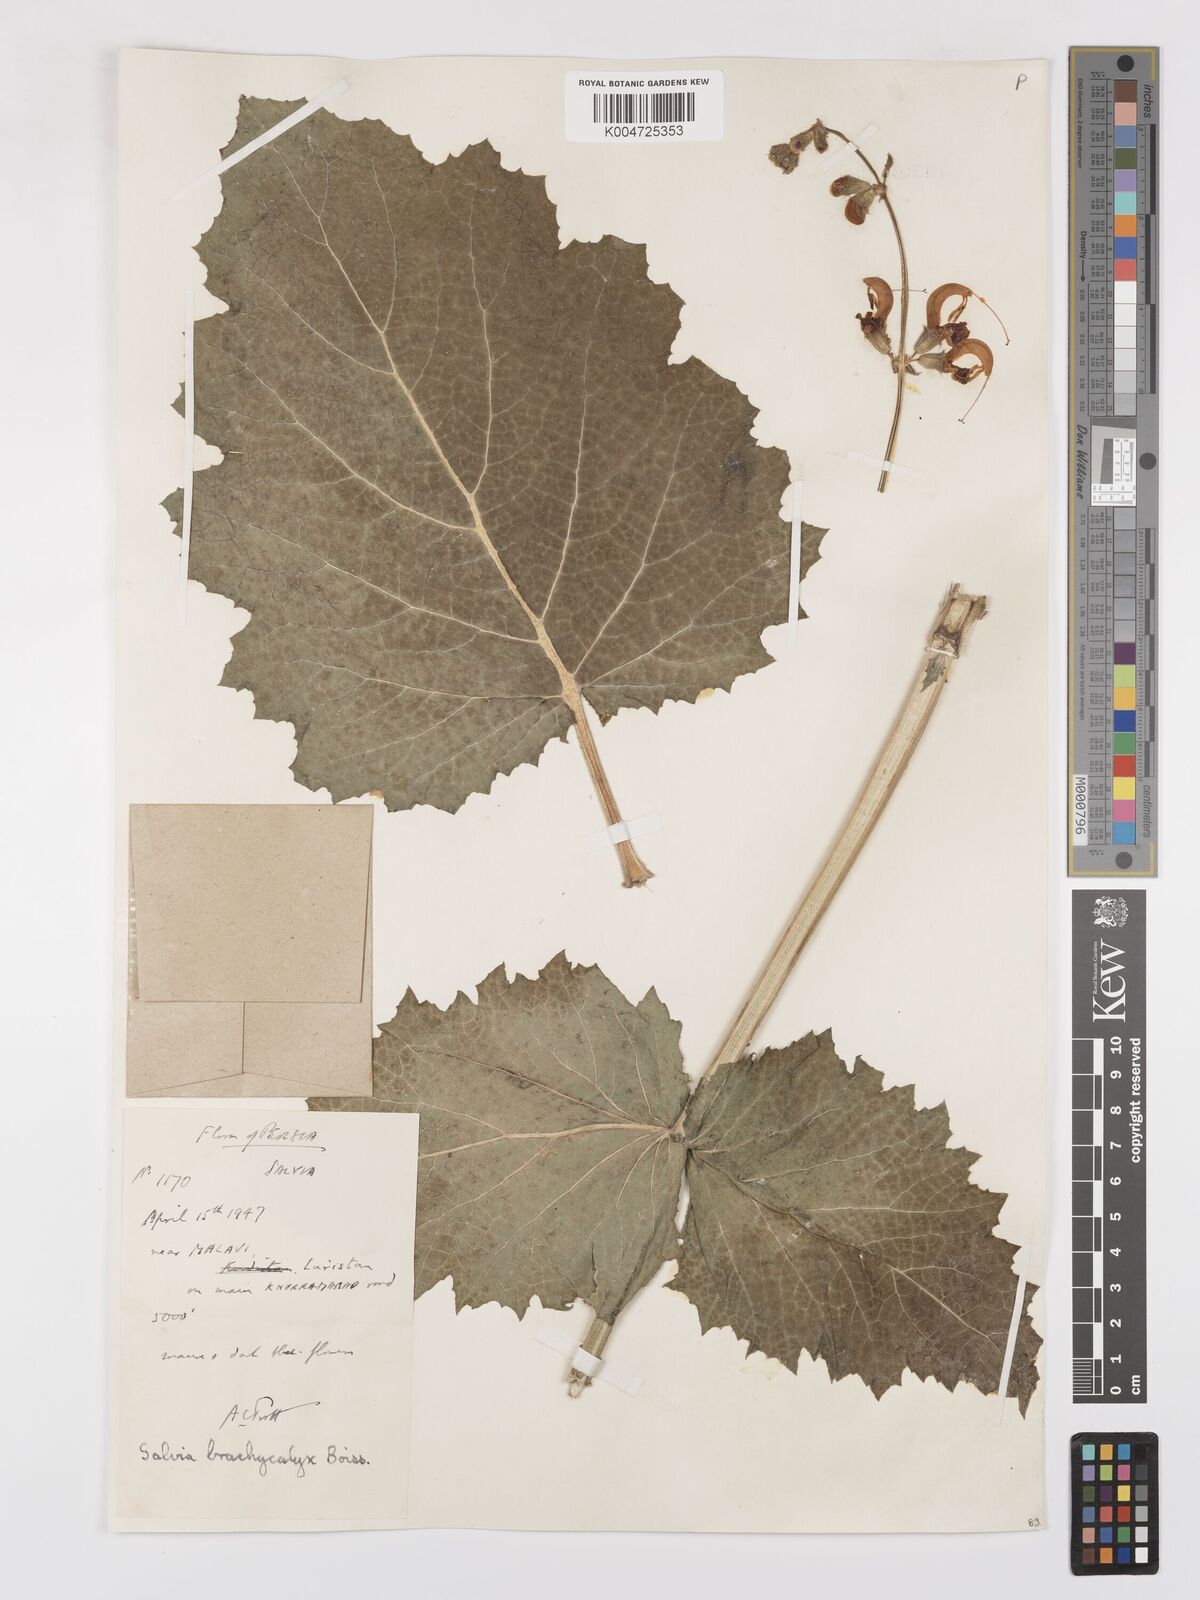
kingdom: Plantae
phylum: Tracheophyta
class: Magnoliopsida
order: Lamiales
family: Lamiaceae
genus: Salvia
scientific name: Salvia indica
